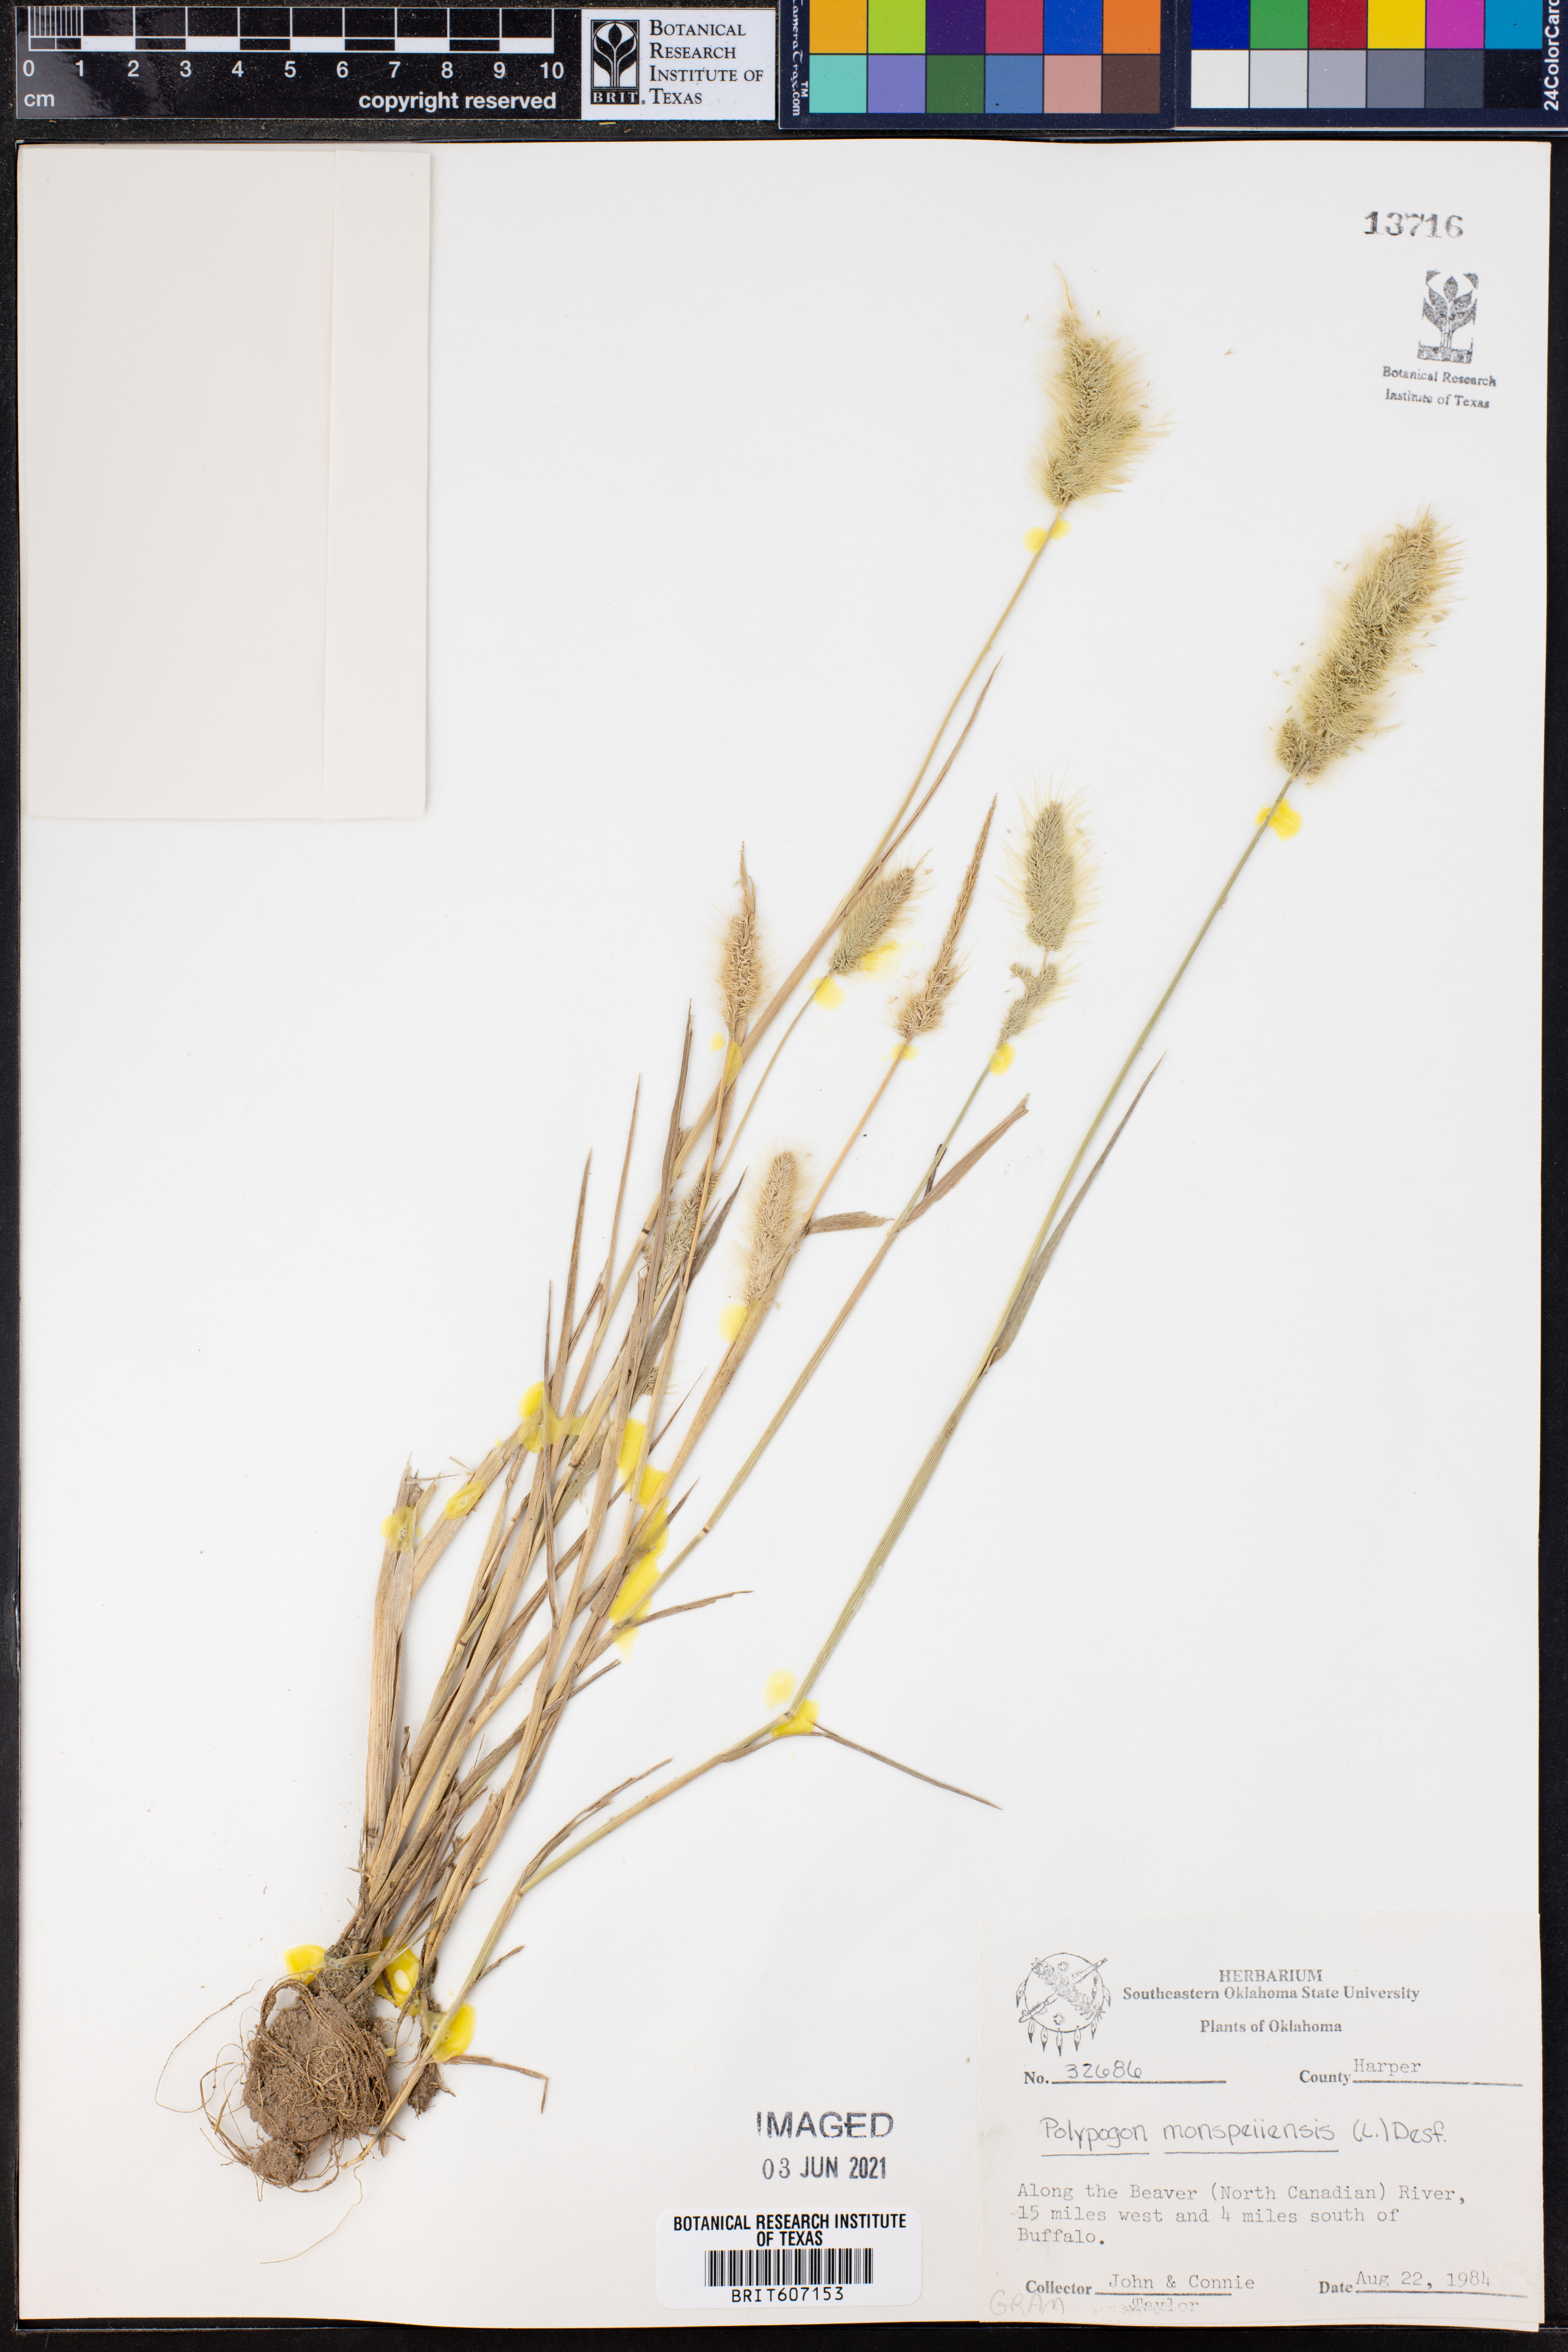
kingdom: Plantae
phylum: Tracheophyta
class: Liliopsida
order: Poales
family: Poaceae
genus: Polypogon
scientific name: Polypogon monspeliensis
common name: Annual rabbitsfoot grass
